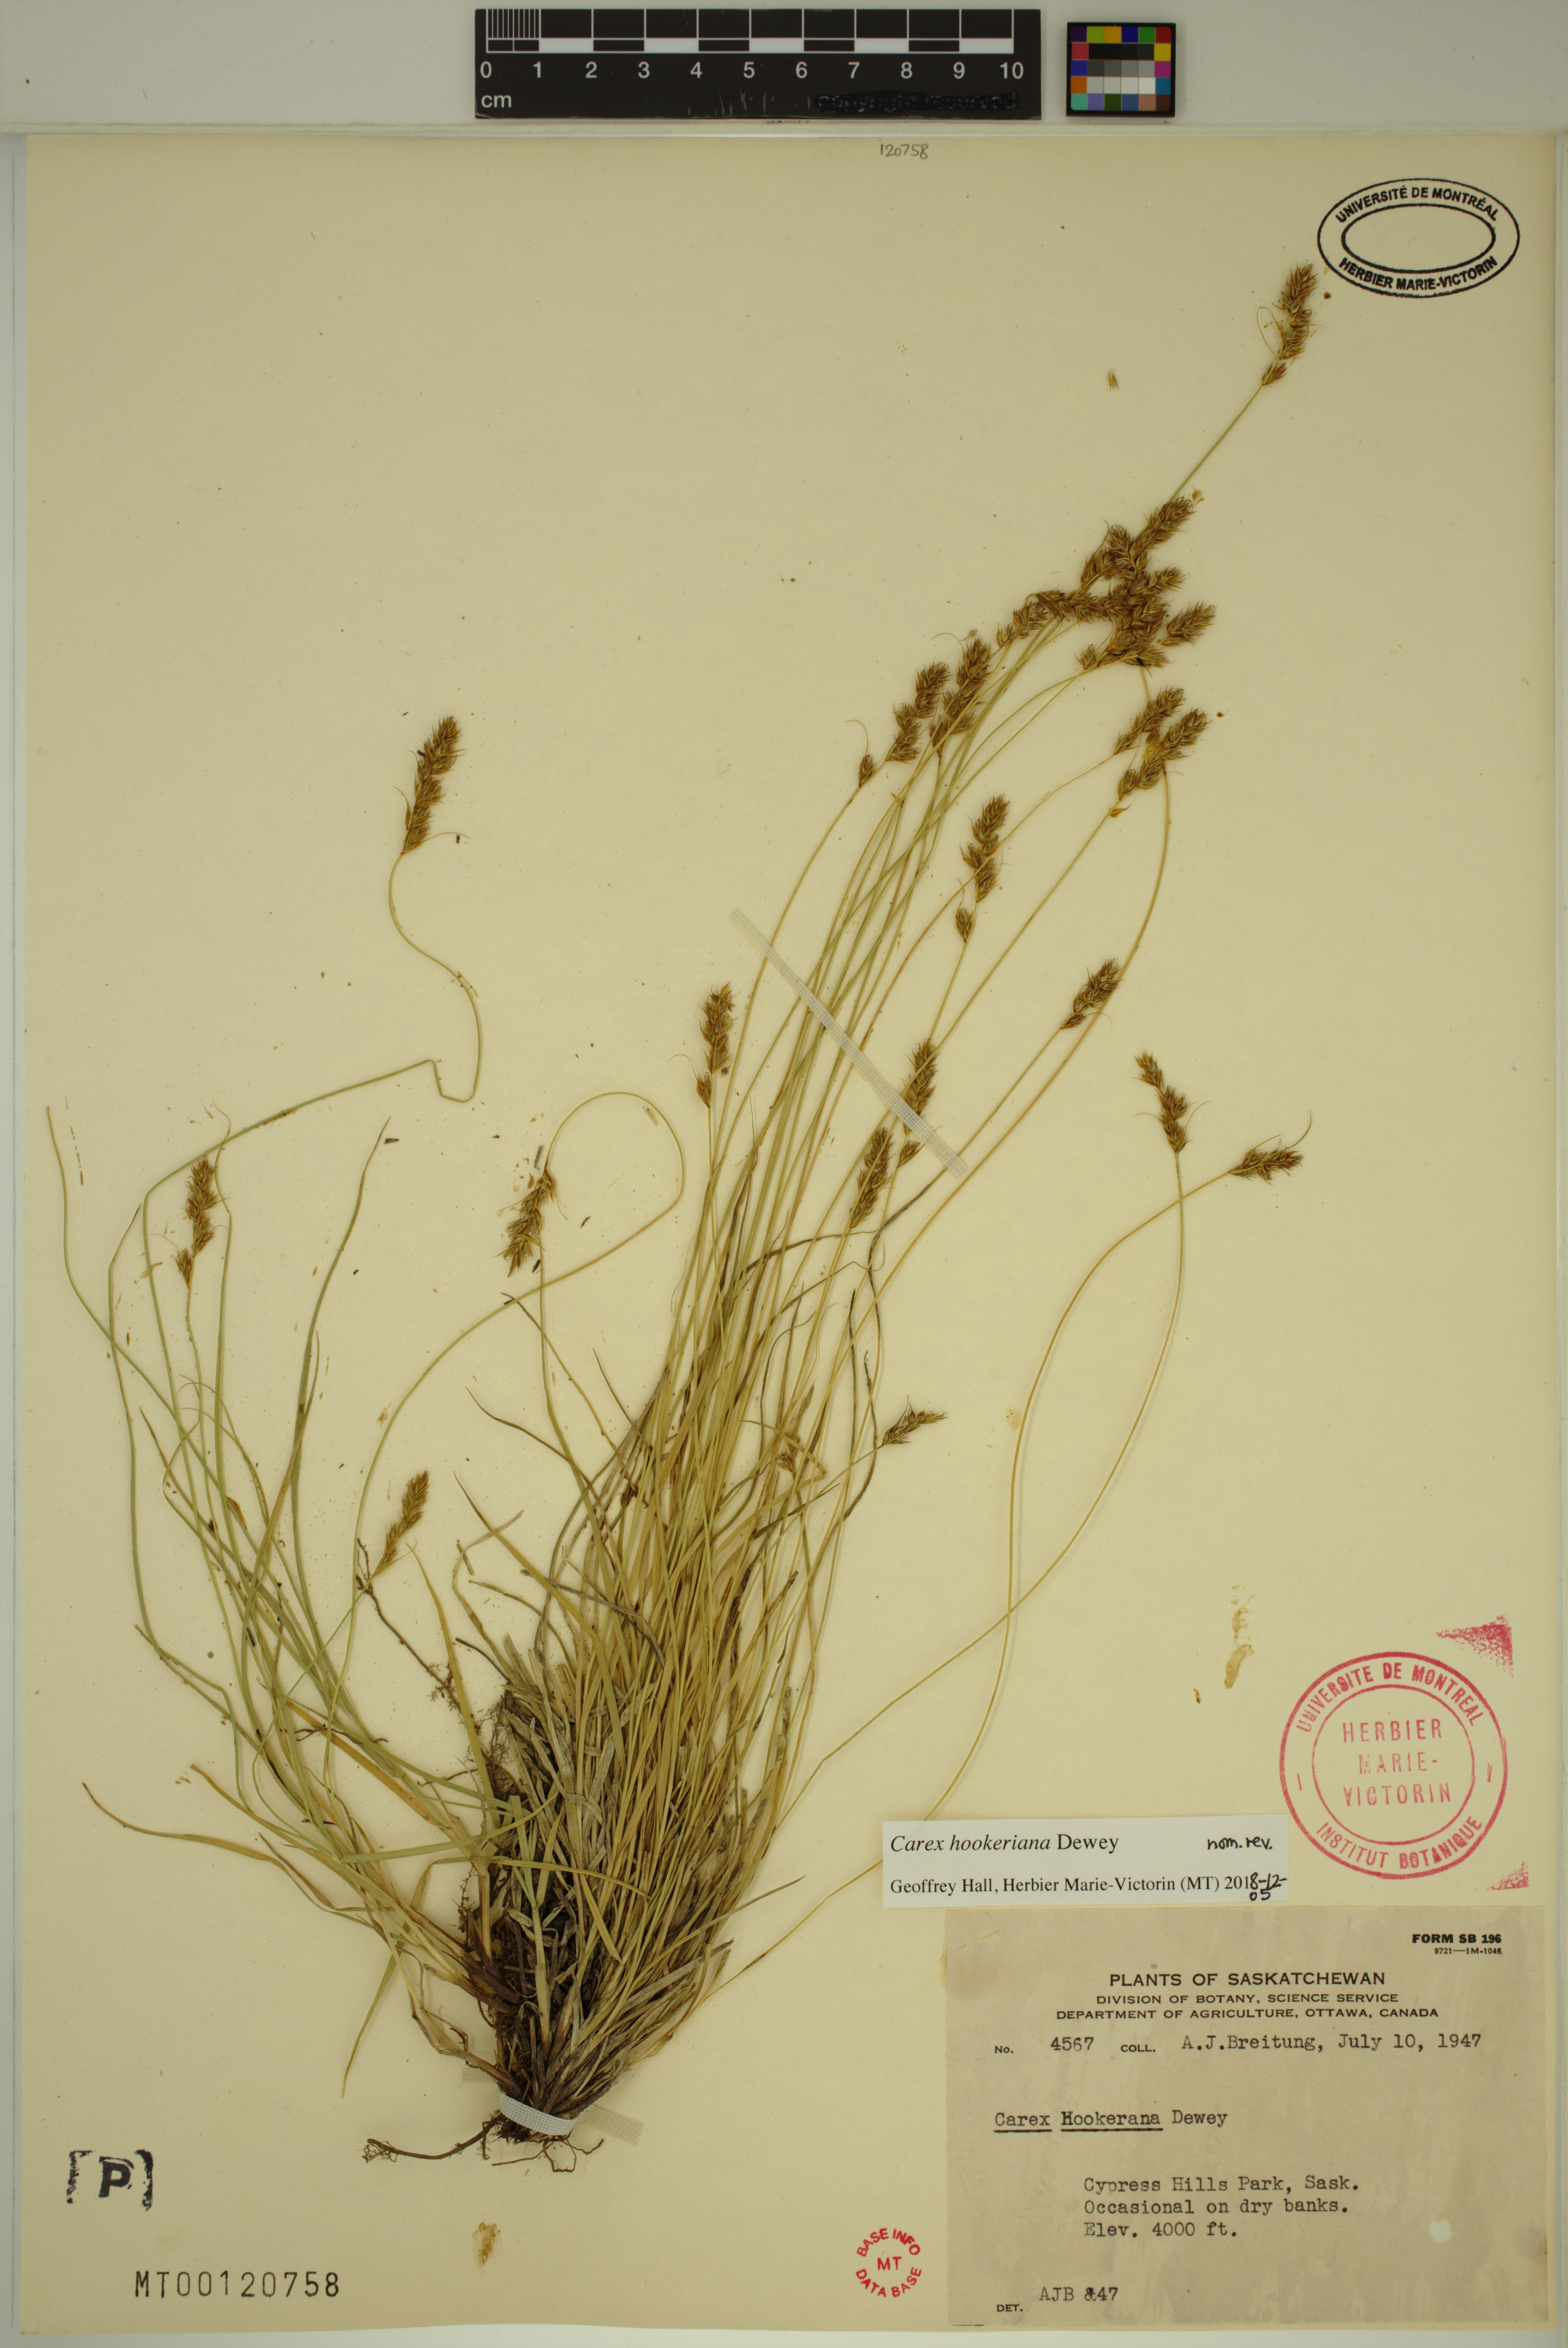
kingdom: Plantae
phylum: Tracheophyta
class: Liliopsida
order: Poales
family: Cyperaceae
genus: Carex
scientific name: Carex hookeriana
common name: Hooker's sedge
